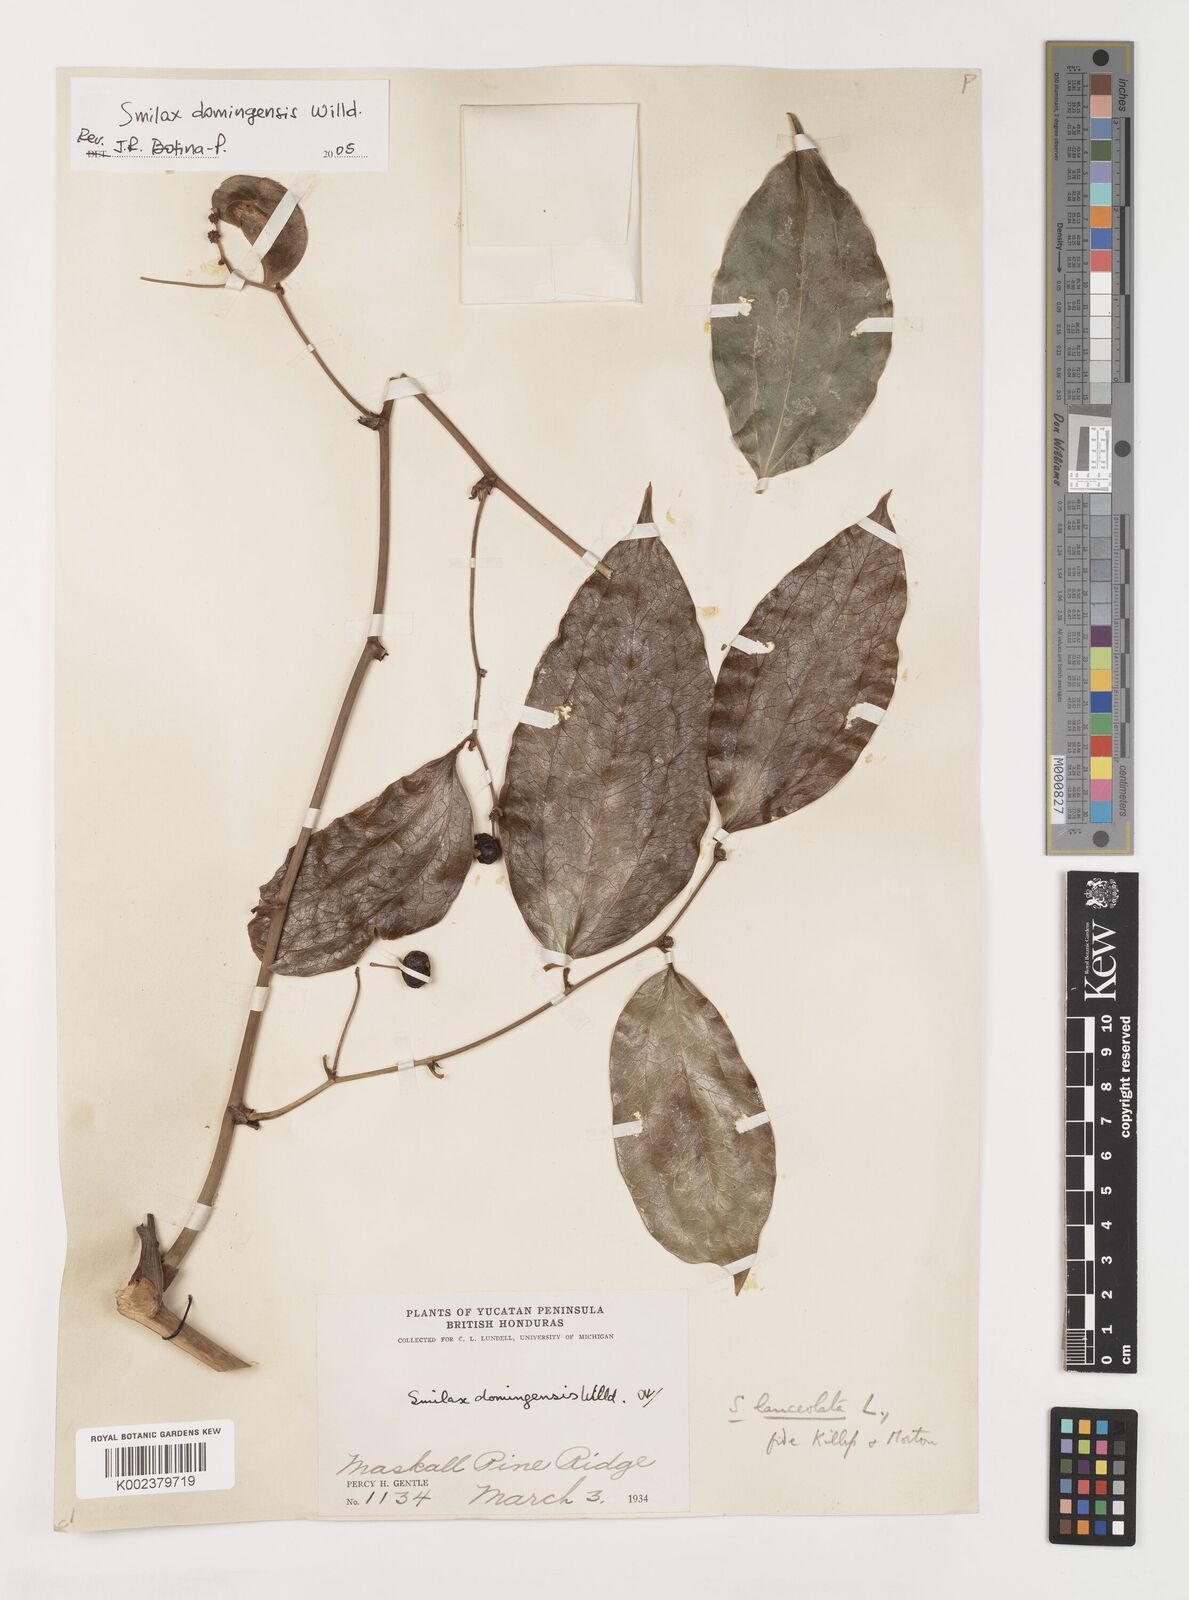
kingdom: Plantae
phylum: Tracheophyta
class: Liliopsida
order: Liliales
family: Smilacaceae
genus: Smilax
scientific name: Smilax laurifolia
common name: Bamboovine
